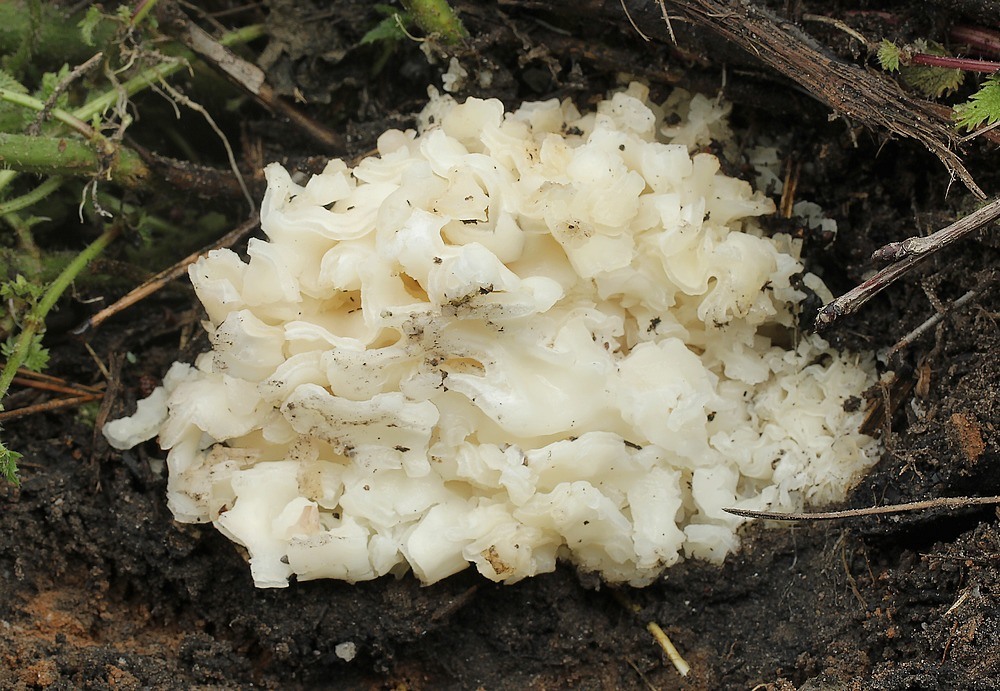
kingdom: Fungi
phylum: Ascomycota
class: Pezizomycetes
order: Pezizales
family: Pezizaceae
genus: Daleomyces
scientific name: Daleomyces phillipsii
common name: blomkåls-bægersvamp
